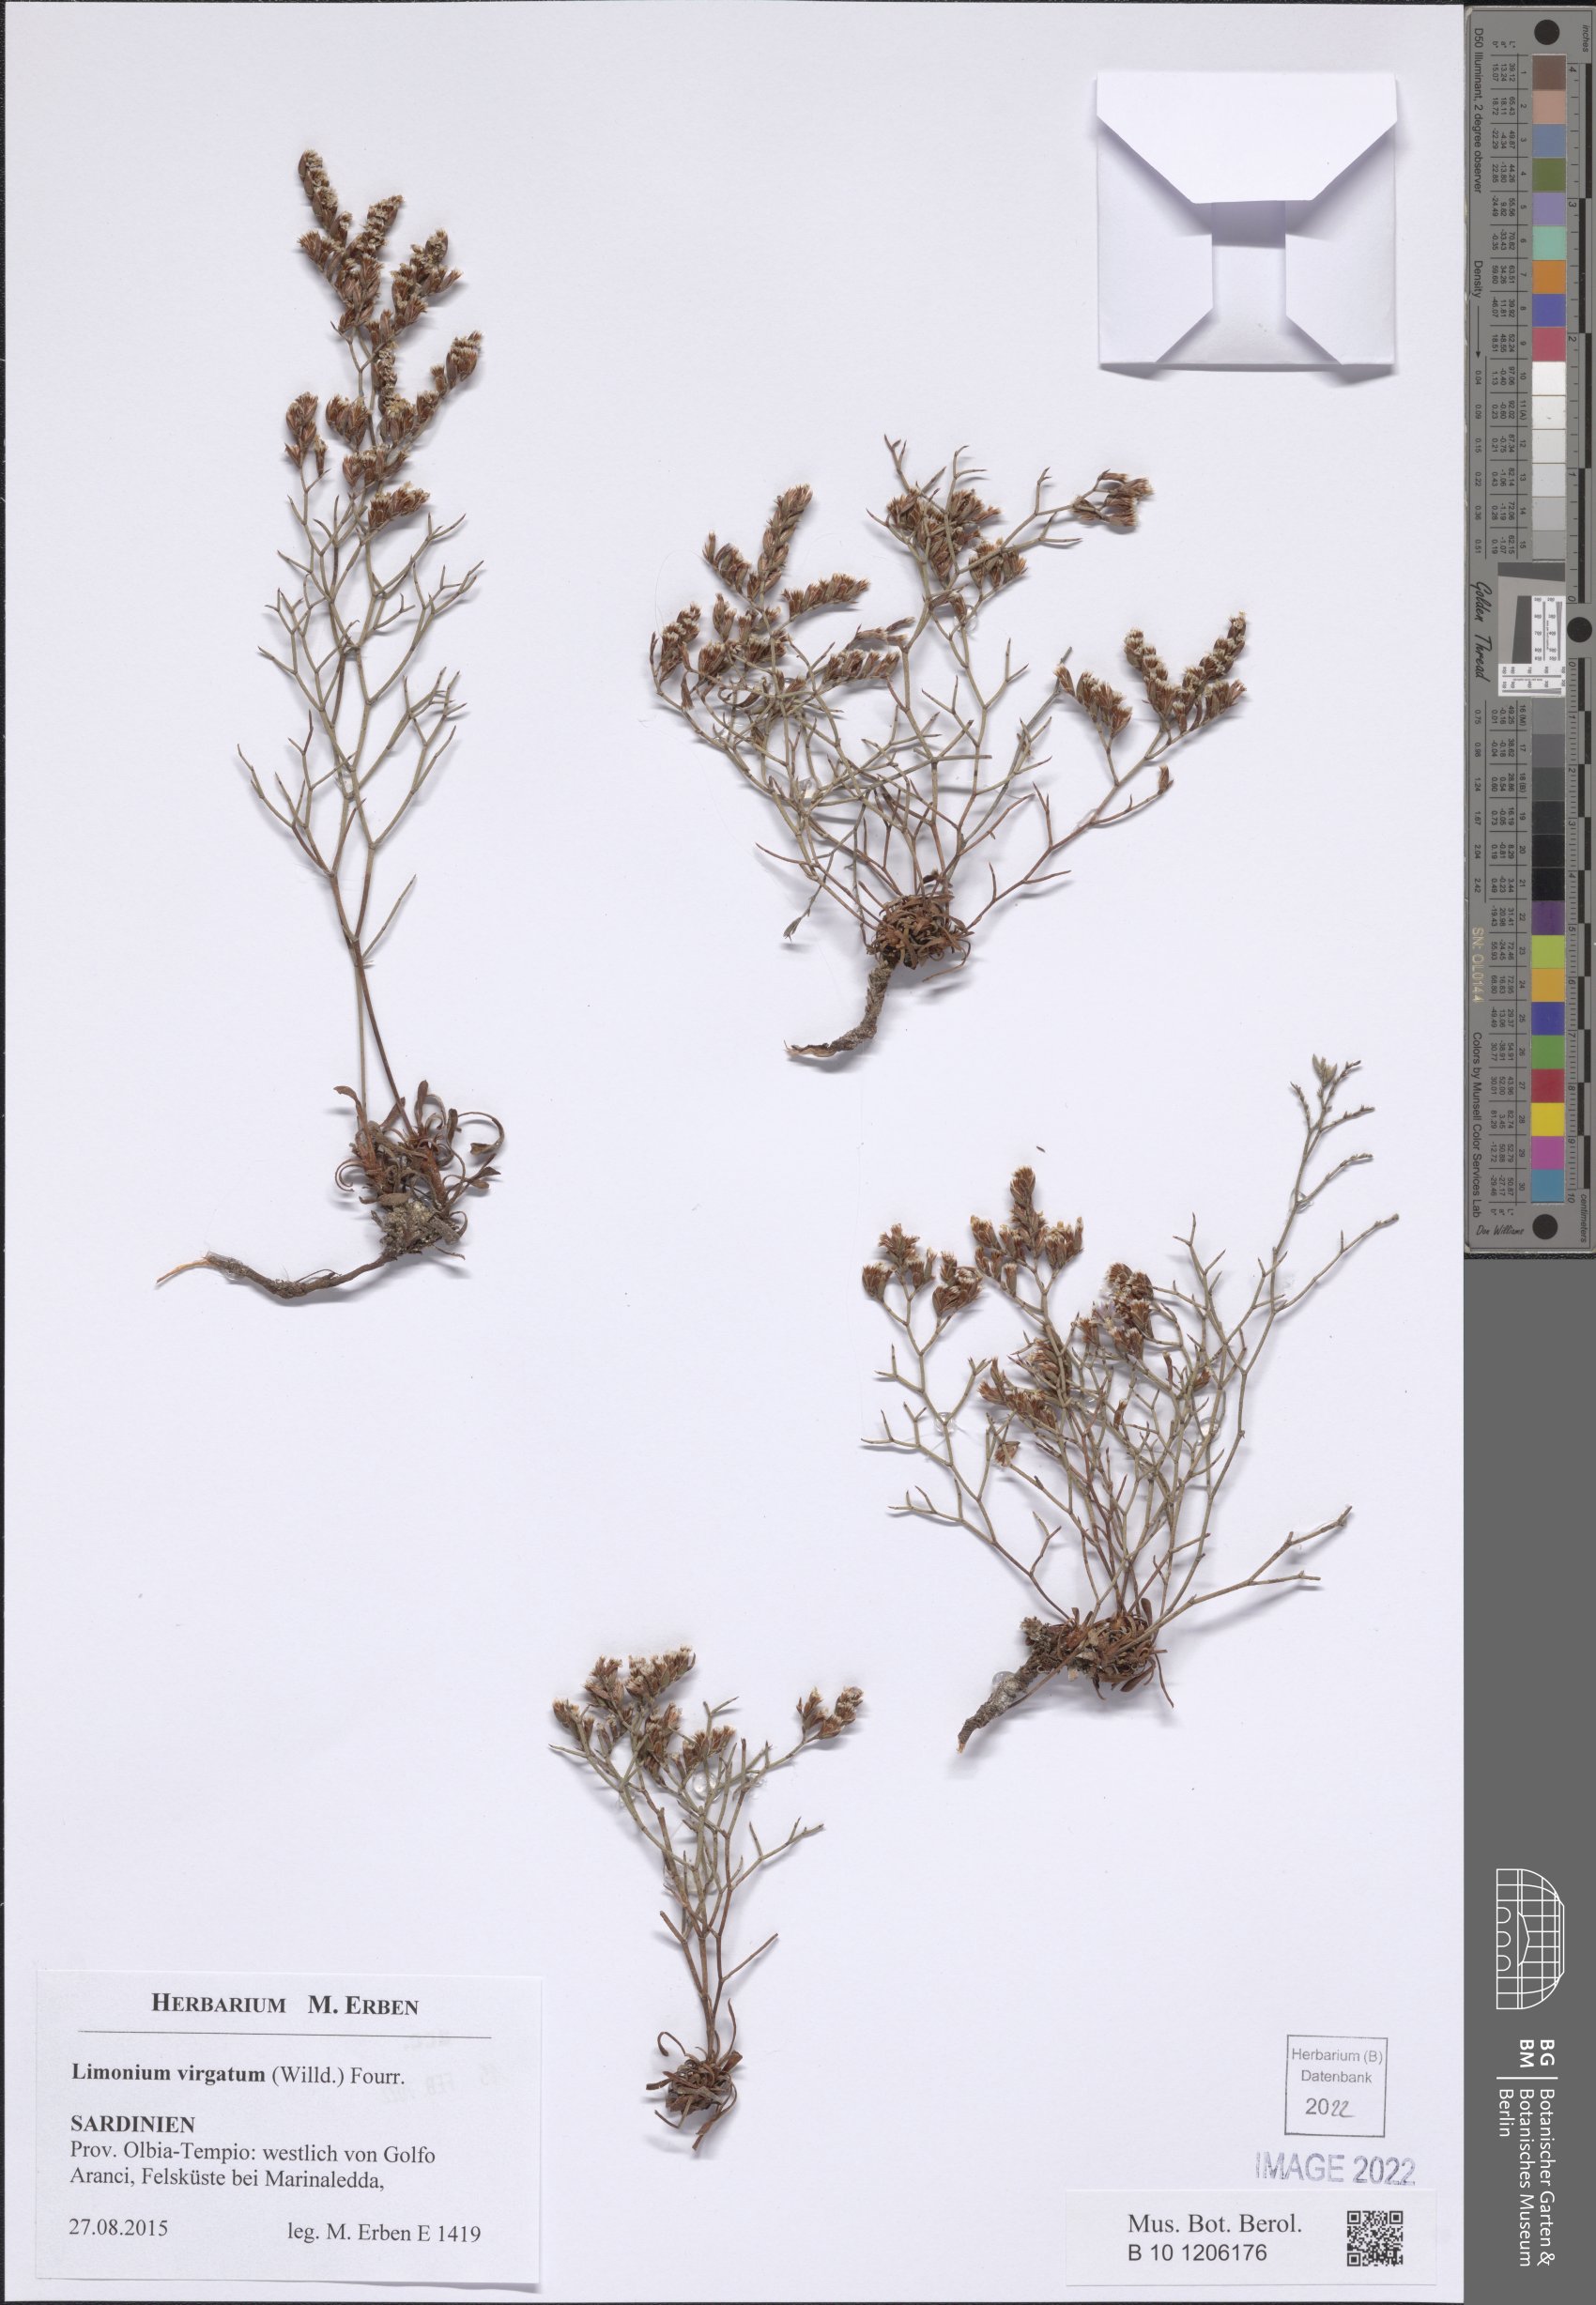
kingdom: Plantae
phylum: Tracheophyta
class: Magnoliopsida
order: Caryophyllales
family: Plumbaginaceae
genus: Limonium
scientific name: Limonium virgatum
